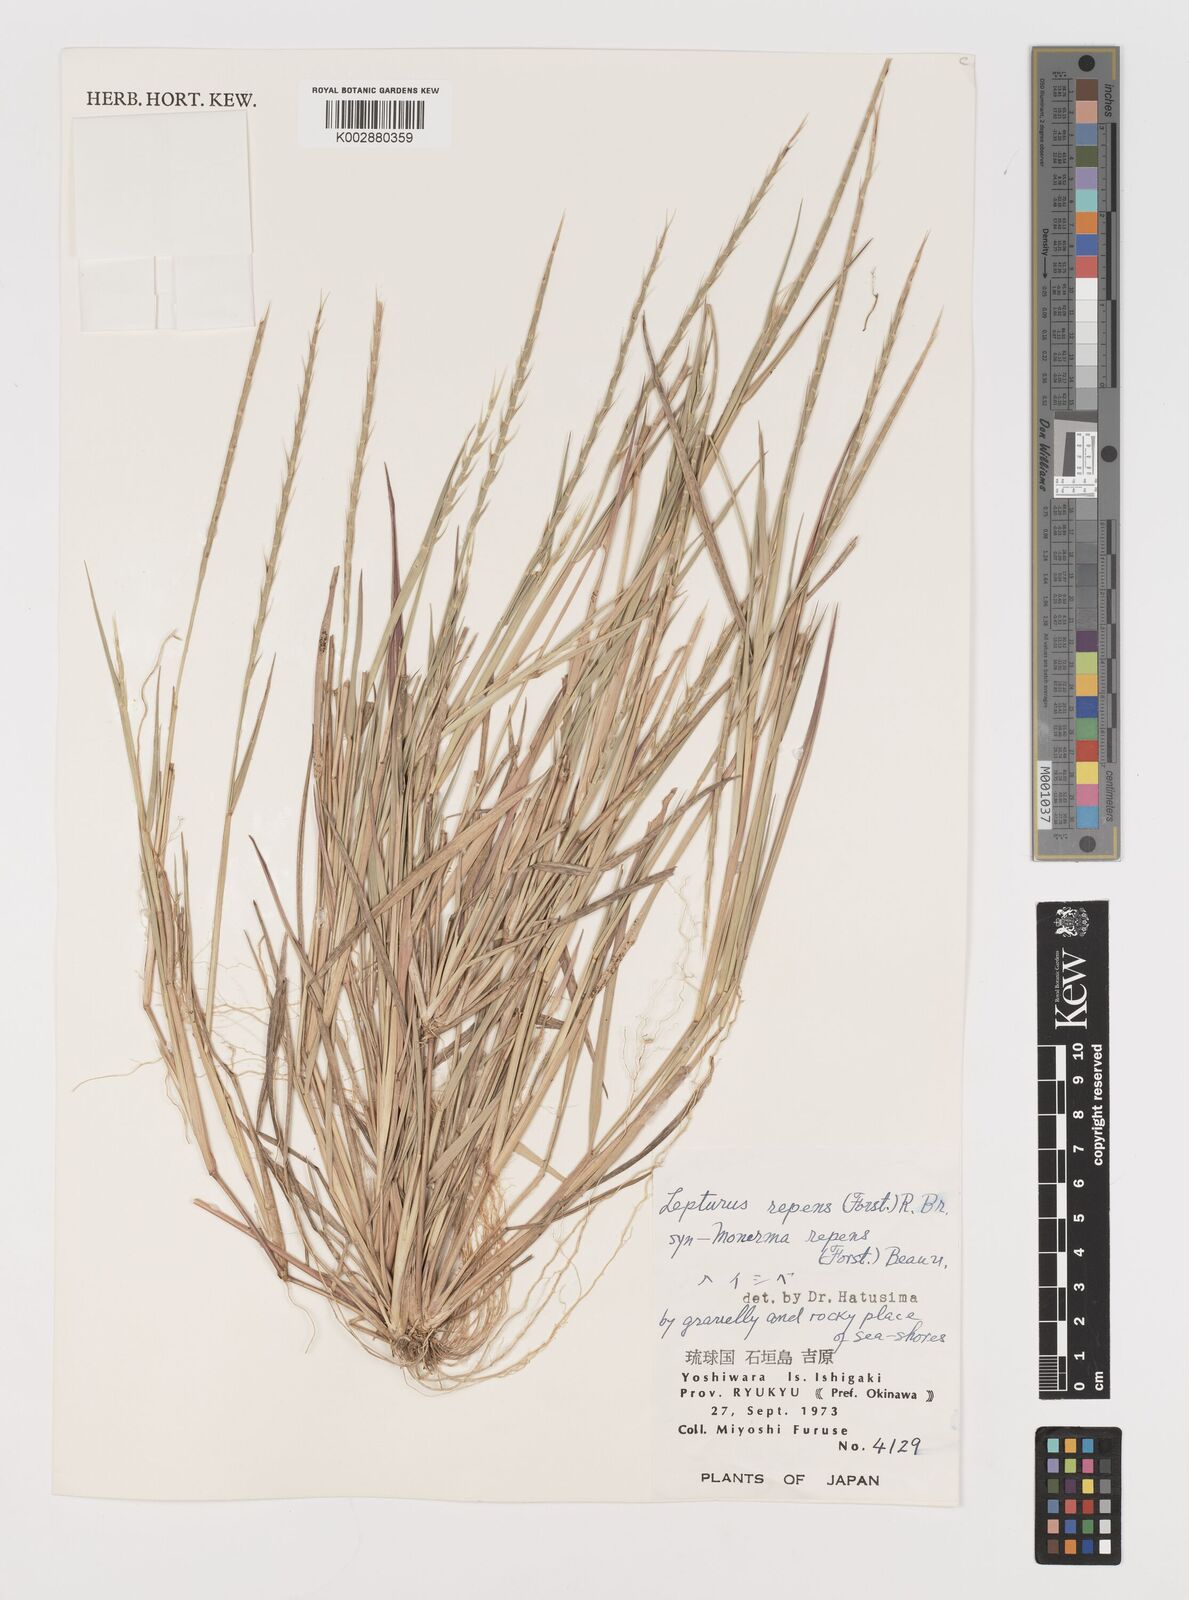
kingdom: Plantae
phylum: Tracheophyta
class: Liliopsida
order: Poales
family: Poaceae
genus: Lepturus
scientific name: Lepturus repens
